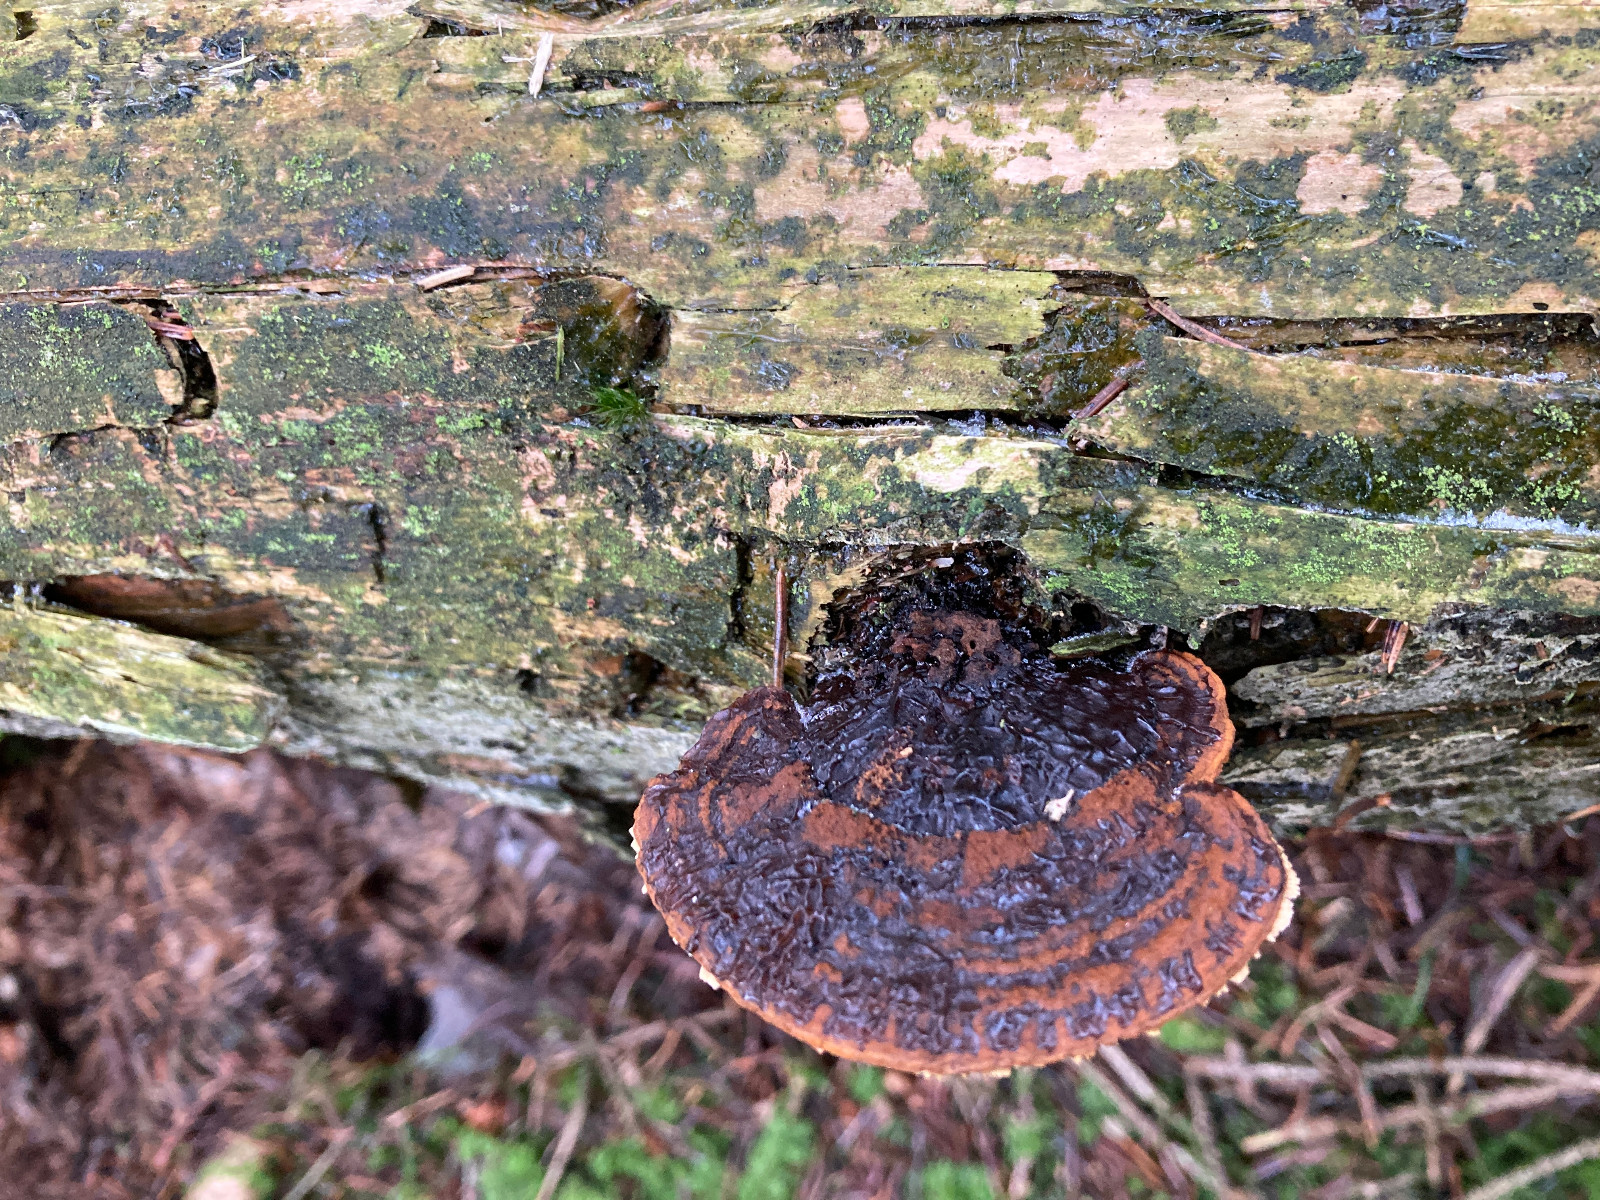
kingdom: Fungi
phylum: Basidiomycota
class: Agaricomycetes
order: Gloeophyllales
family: Gloeophyllaceae
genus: Gloeophyllum
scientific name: Gloeophyllum sepiarium
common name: fyrre-korkhat
